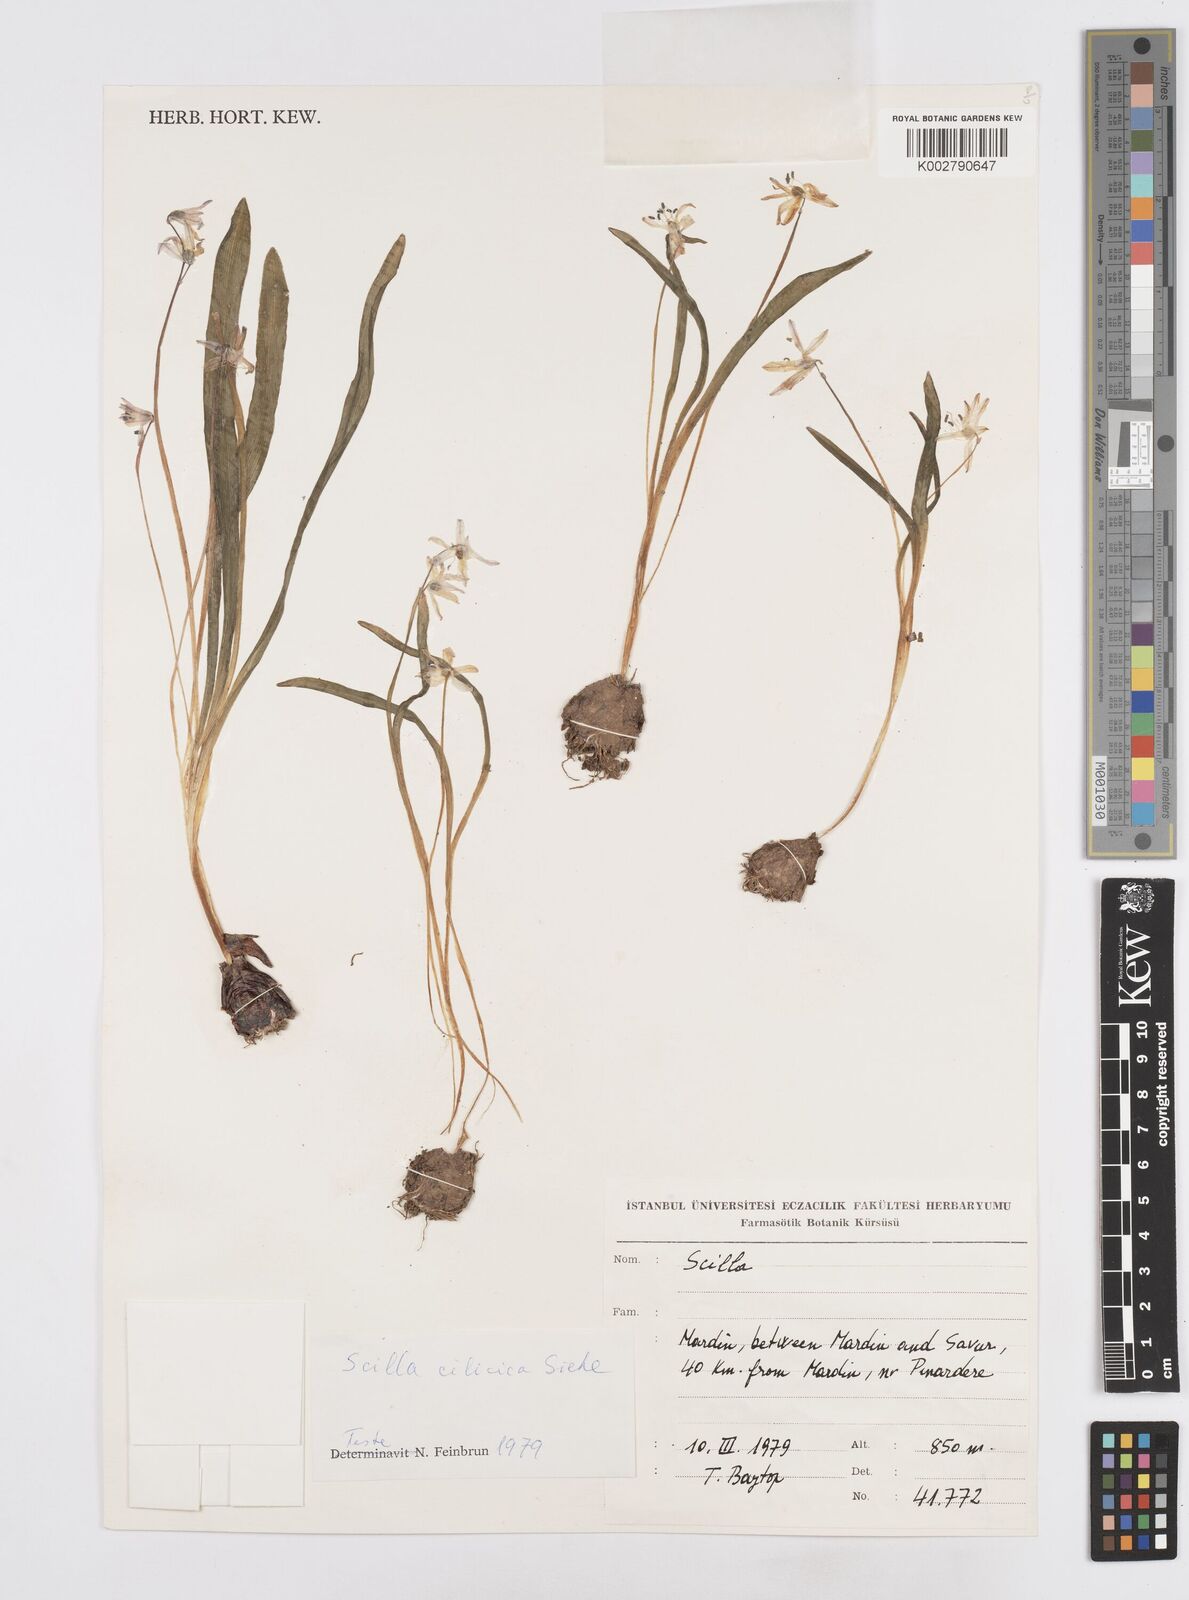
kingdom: Plantae
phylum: Tracheophyta
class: Liliopsida
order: Asparagales
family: Asparagaceae
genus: Scilla
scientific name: Scilla cilicica
